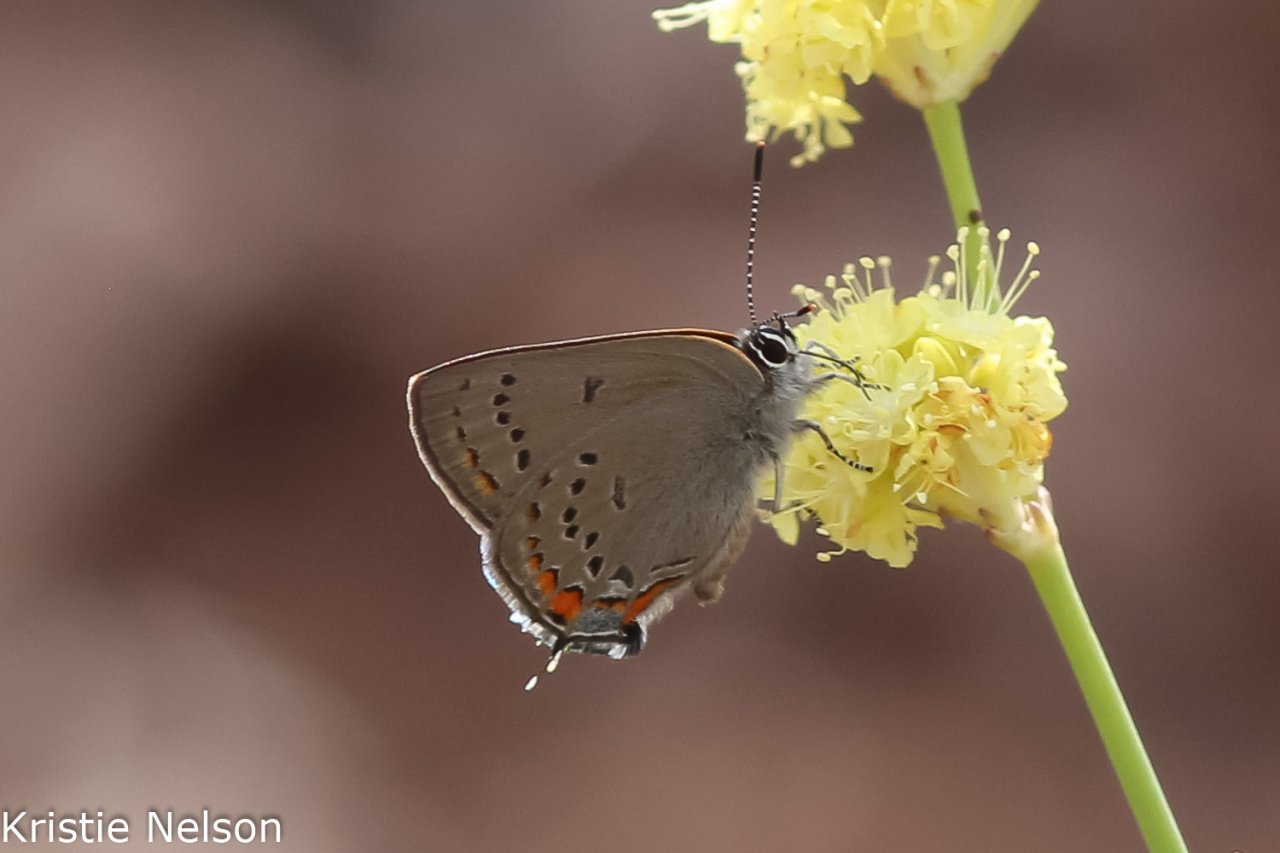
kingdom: Animalia
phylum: Arthropoda
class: Insecta
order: Lepidoptera
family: Lycaenidae
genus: Strymon
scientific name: Strymon acadica
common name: California Hairstreak
